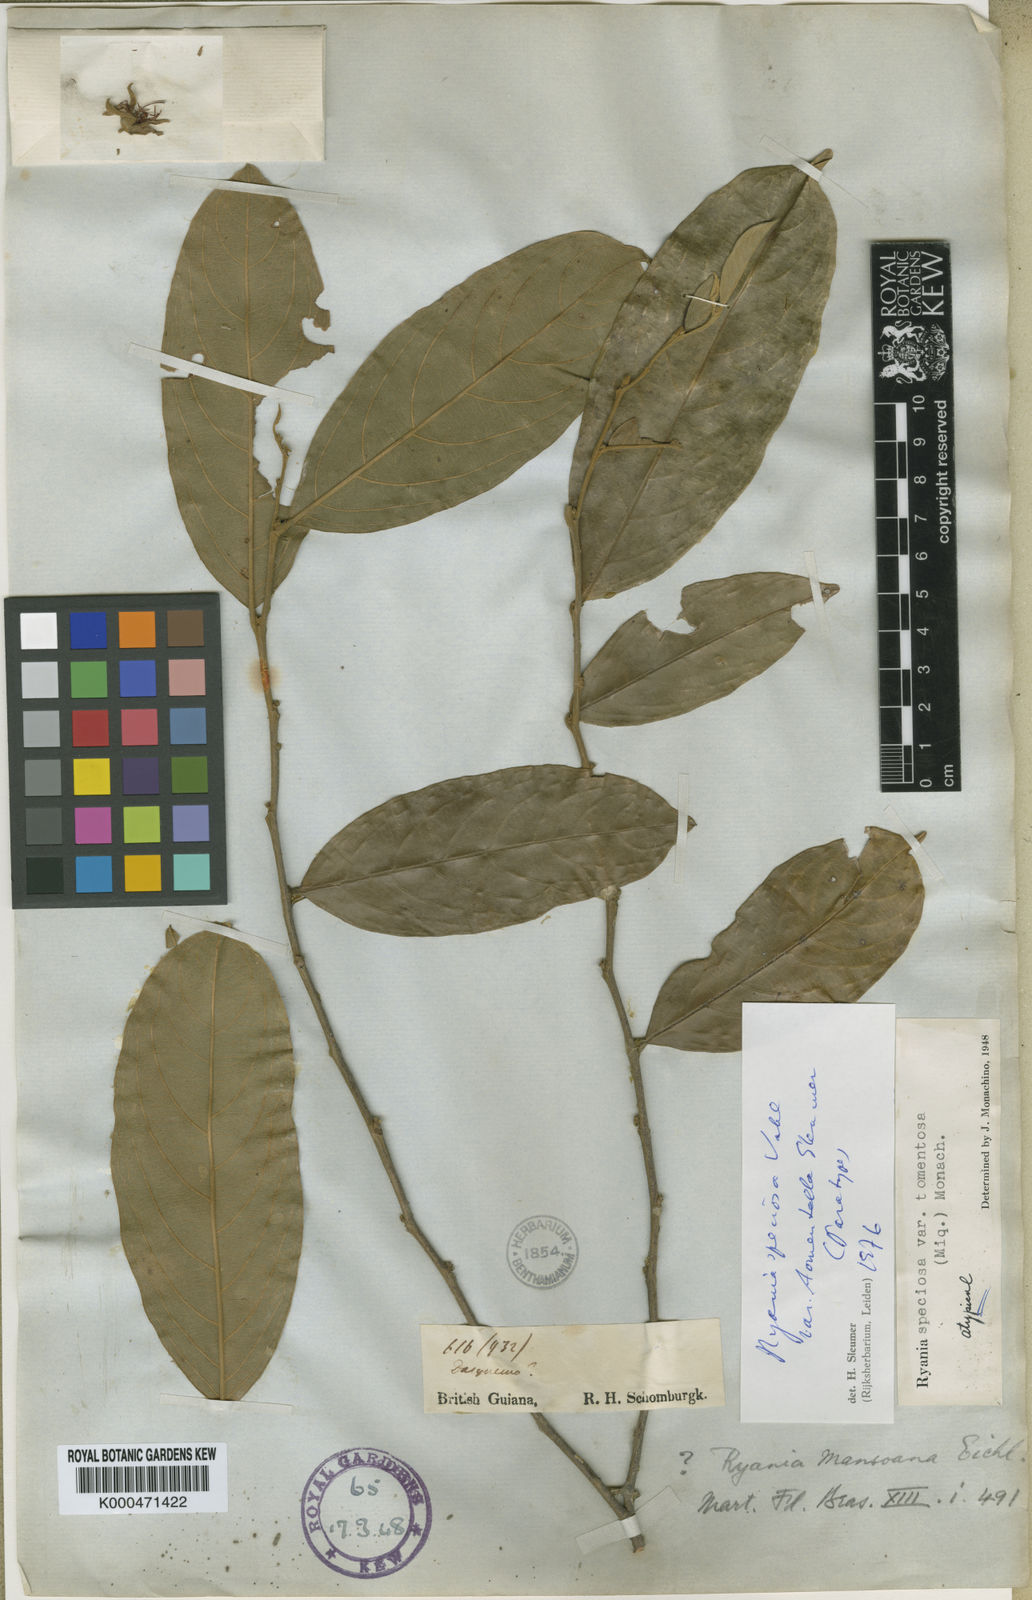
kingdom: Plantae
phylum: Tracheophyta
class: Magnoliopsida
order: Malpighiales
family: Salicaceae
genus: Ryania
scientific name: Ryania speciosa
